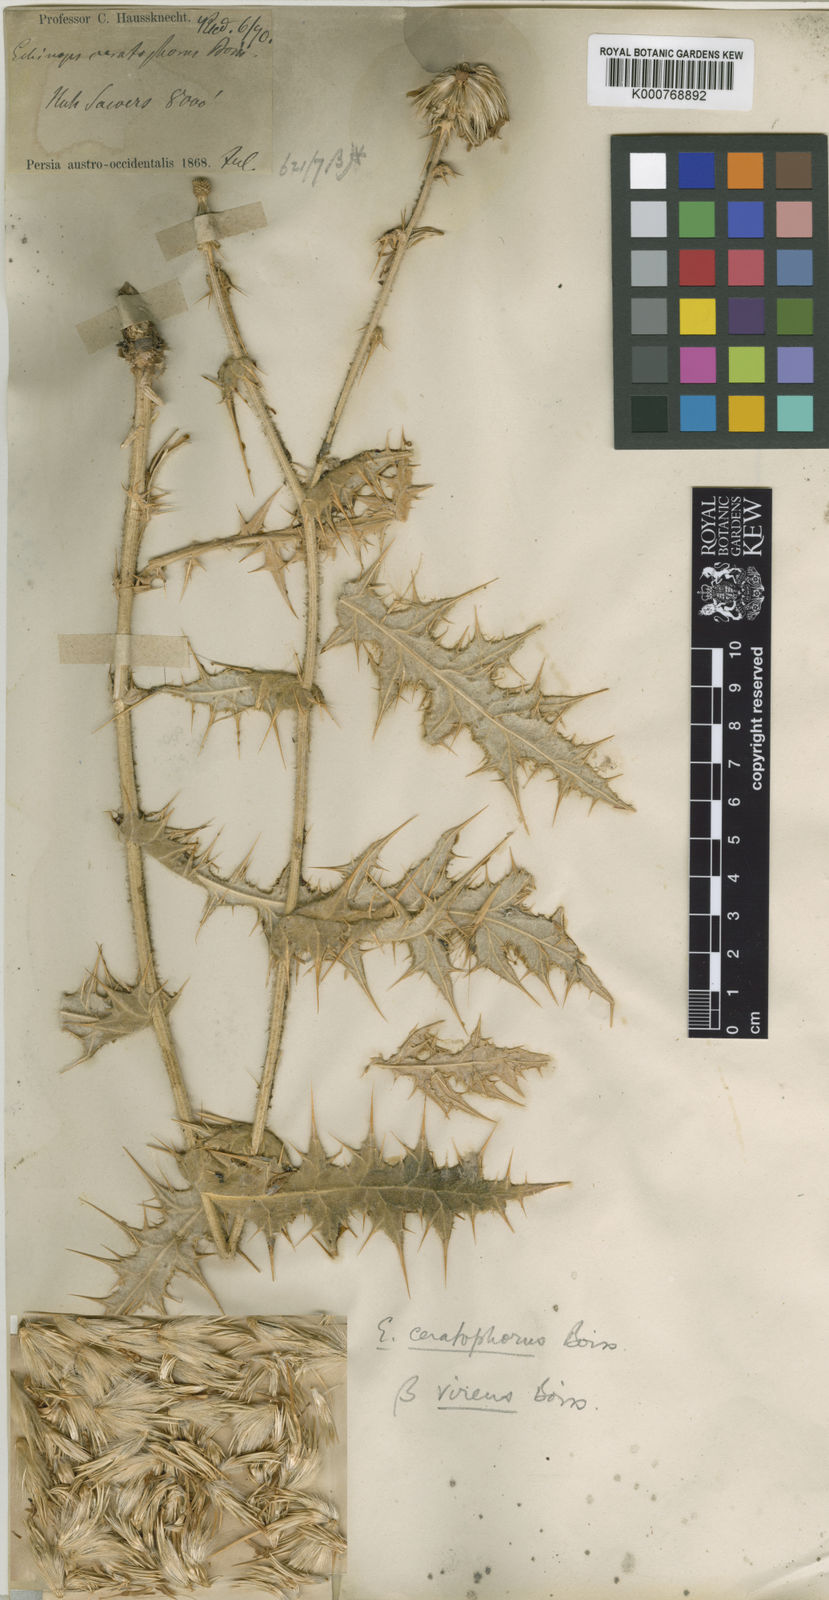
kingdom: Plantae
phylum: Tracheophyta
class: Magnoliopsida
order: Asterales
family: Asteraceae
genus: Echinops
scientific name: Echinops ceratophorus
